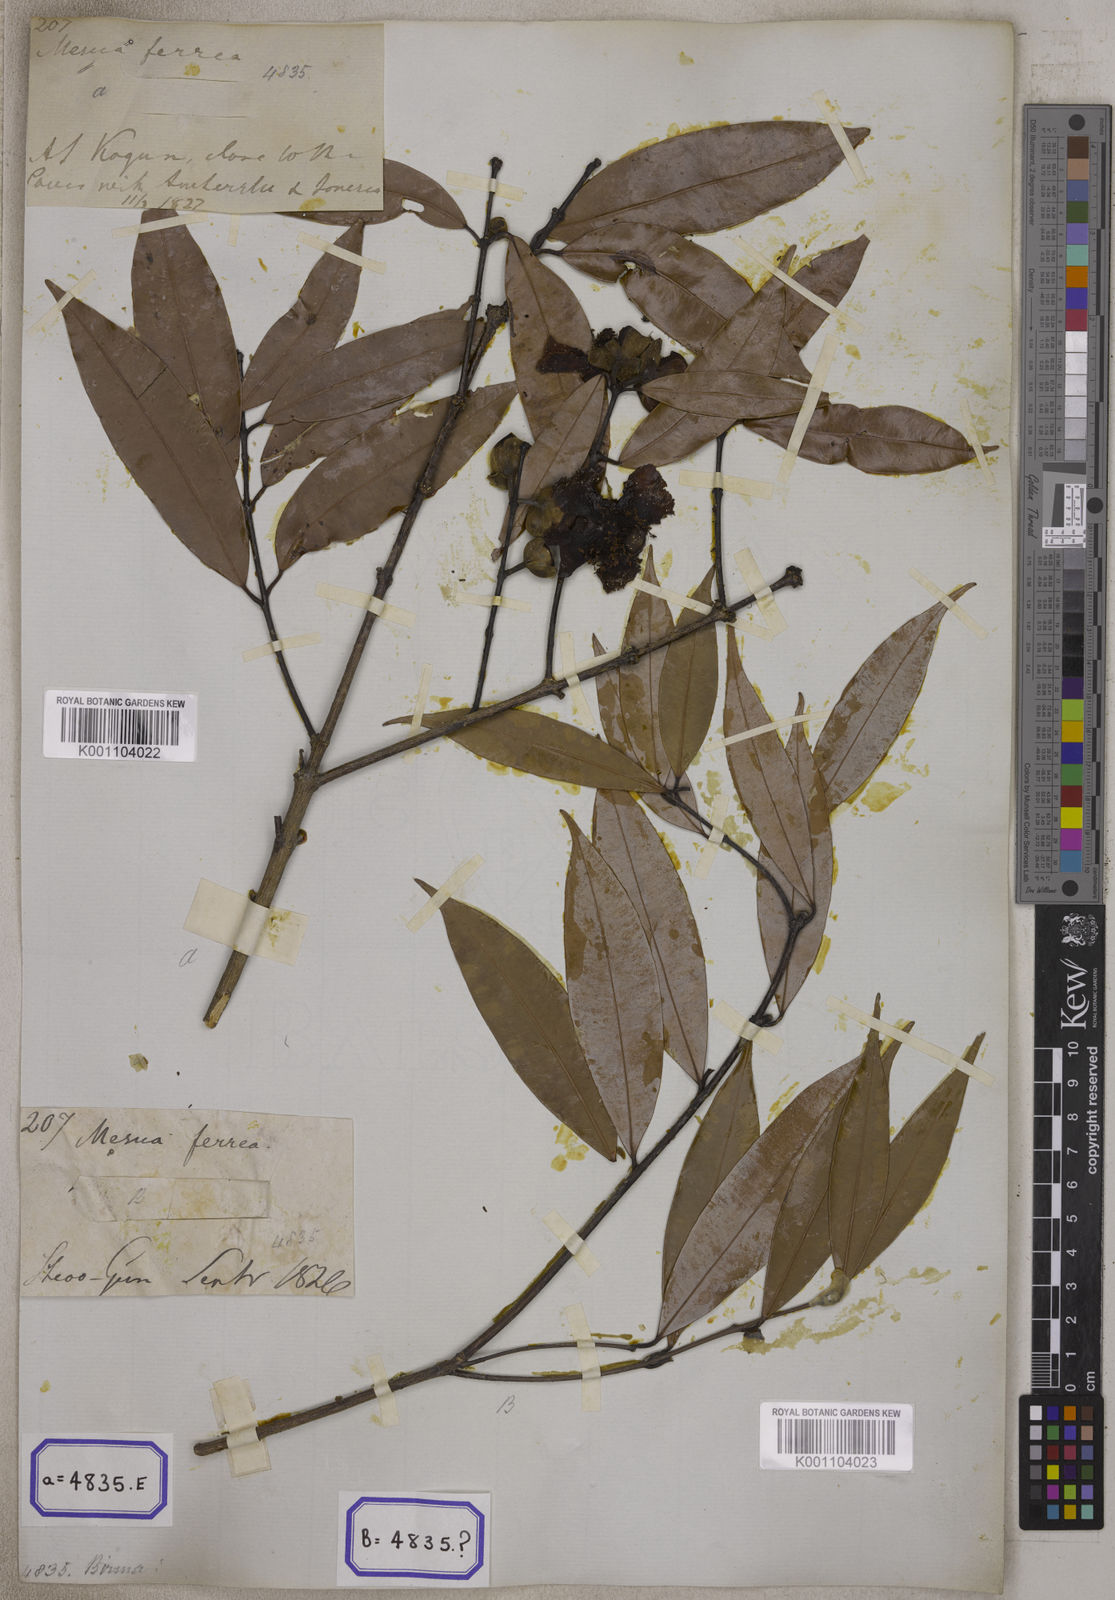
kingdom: Plantae
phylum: Tracheophyta
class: Magnoliopsida
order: Malpighiales
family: Calophyllaceae
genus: Mesua
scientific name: Mesua ferrea
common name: Mesua
